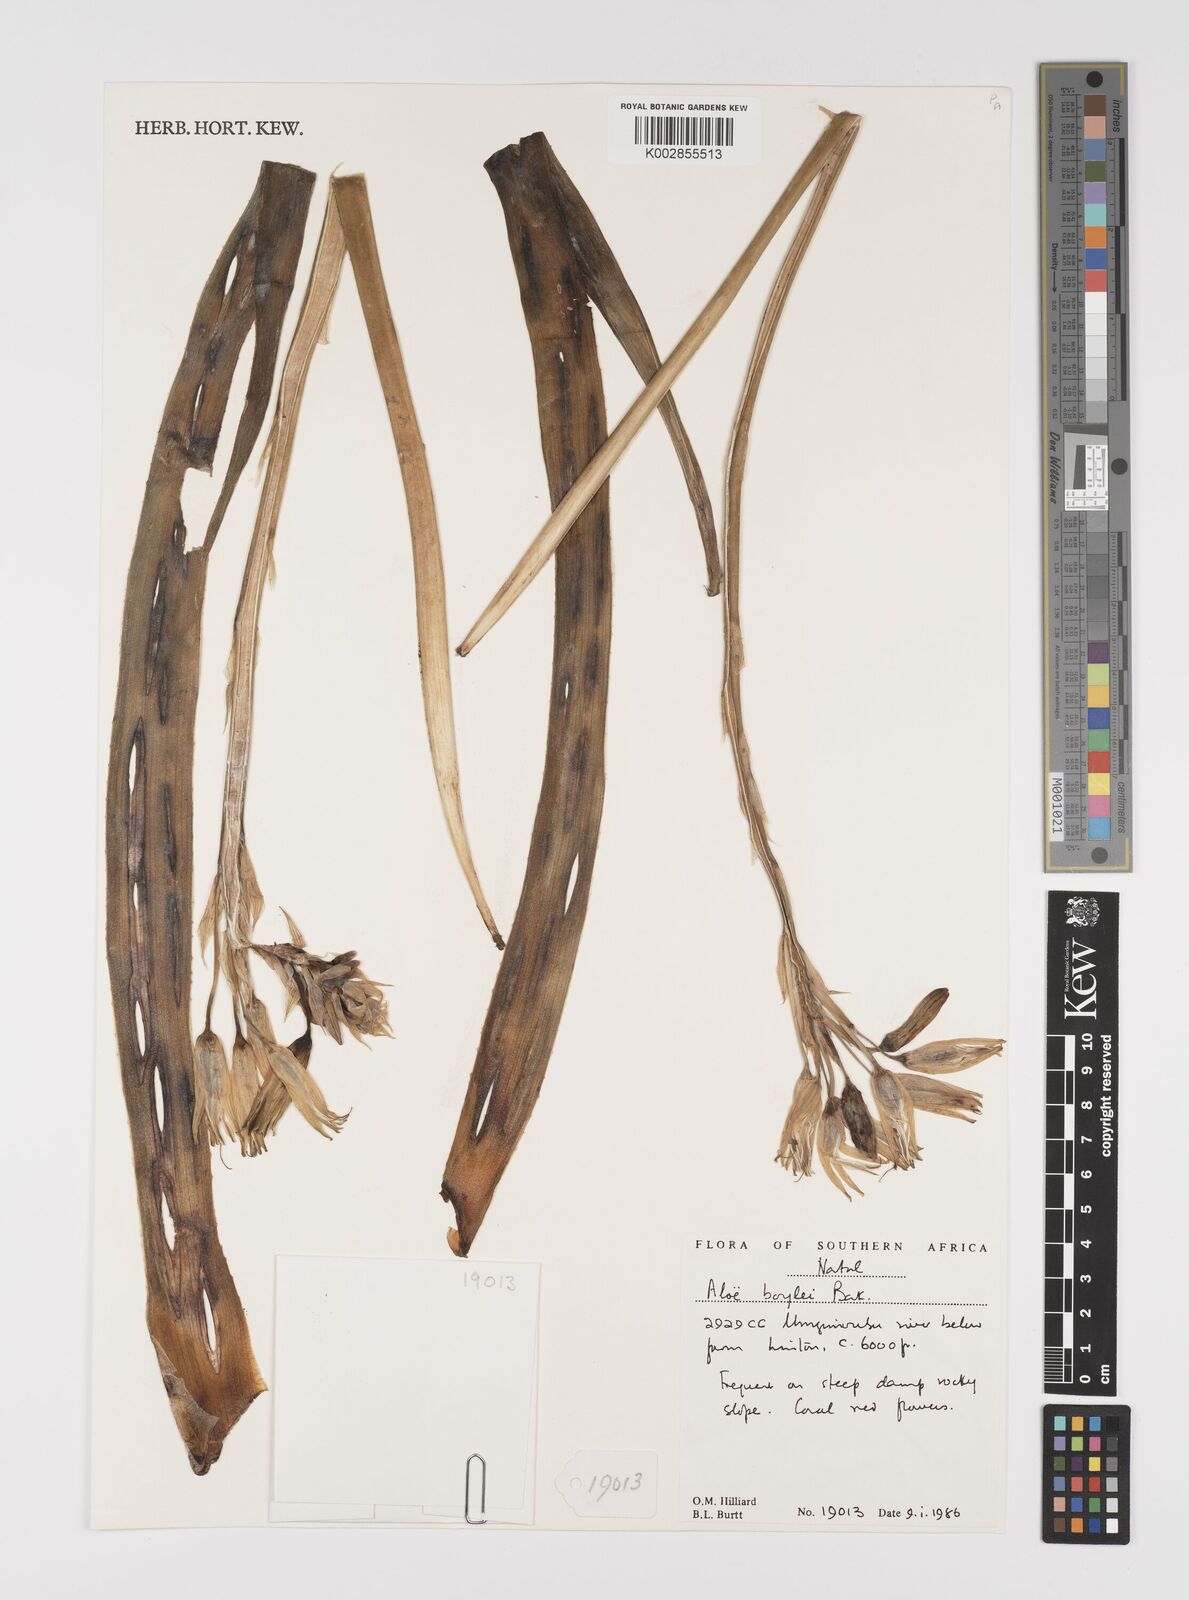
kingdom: Plantae
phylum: Tracheophyta
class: Liliopsida
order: Asparagales
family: Asphodelaceae
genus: Aloe
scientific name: Aloe boylei
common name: Broad-leaved grass aloe
